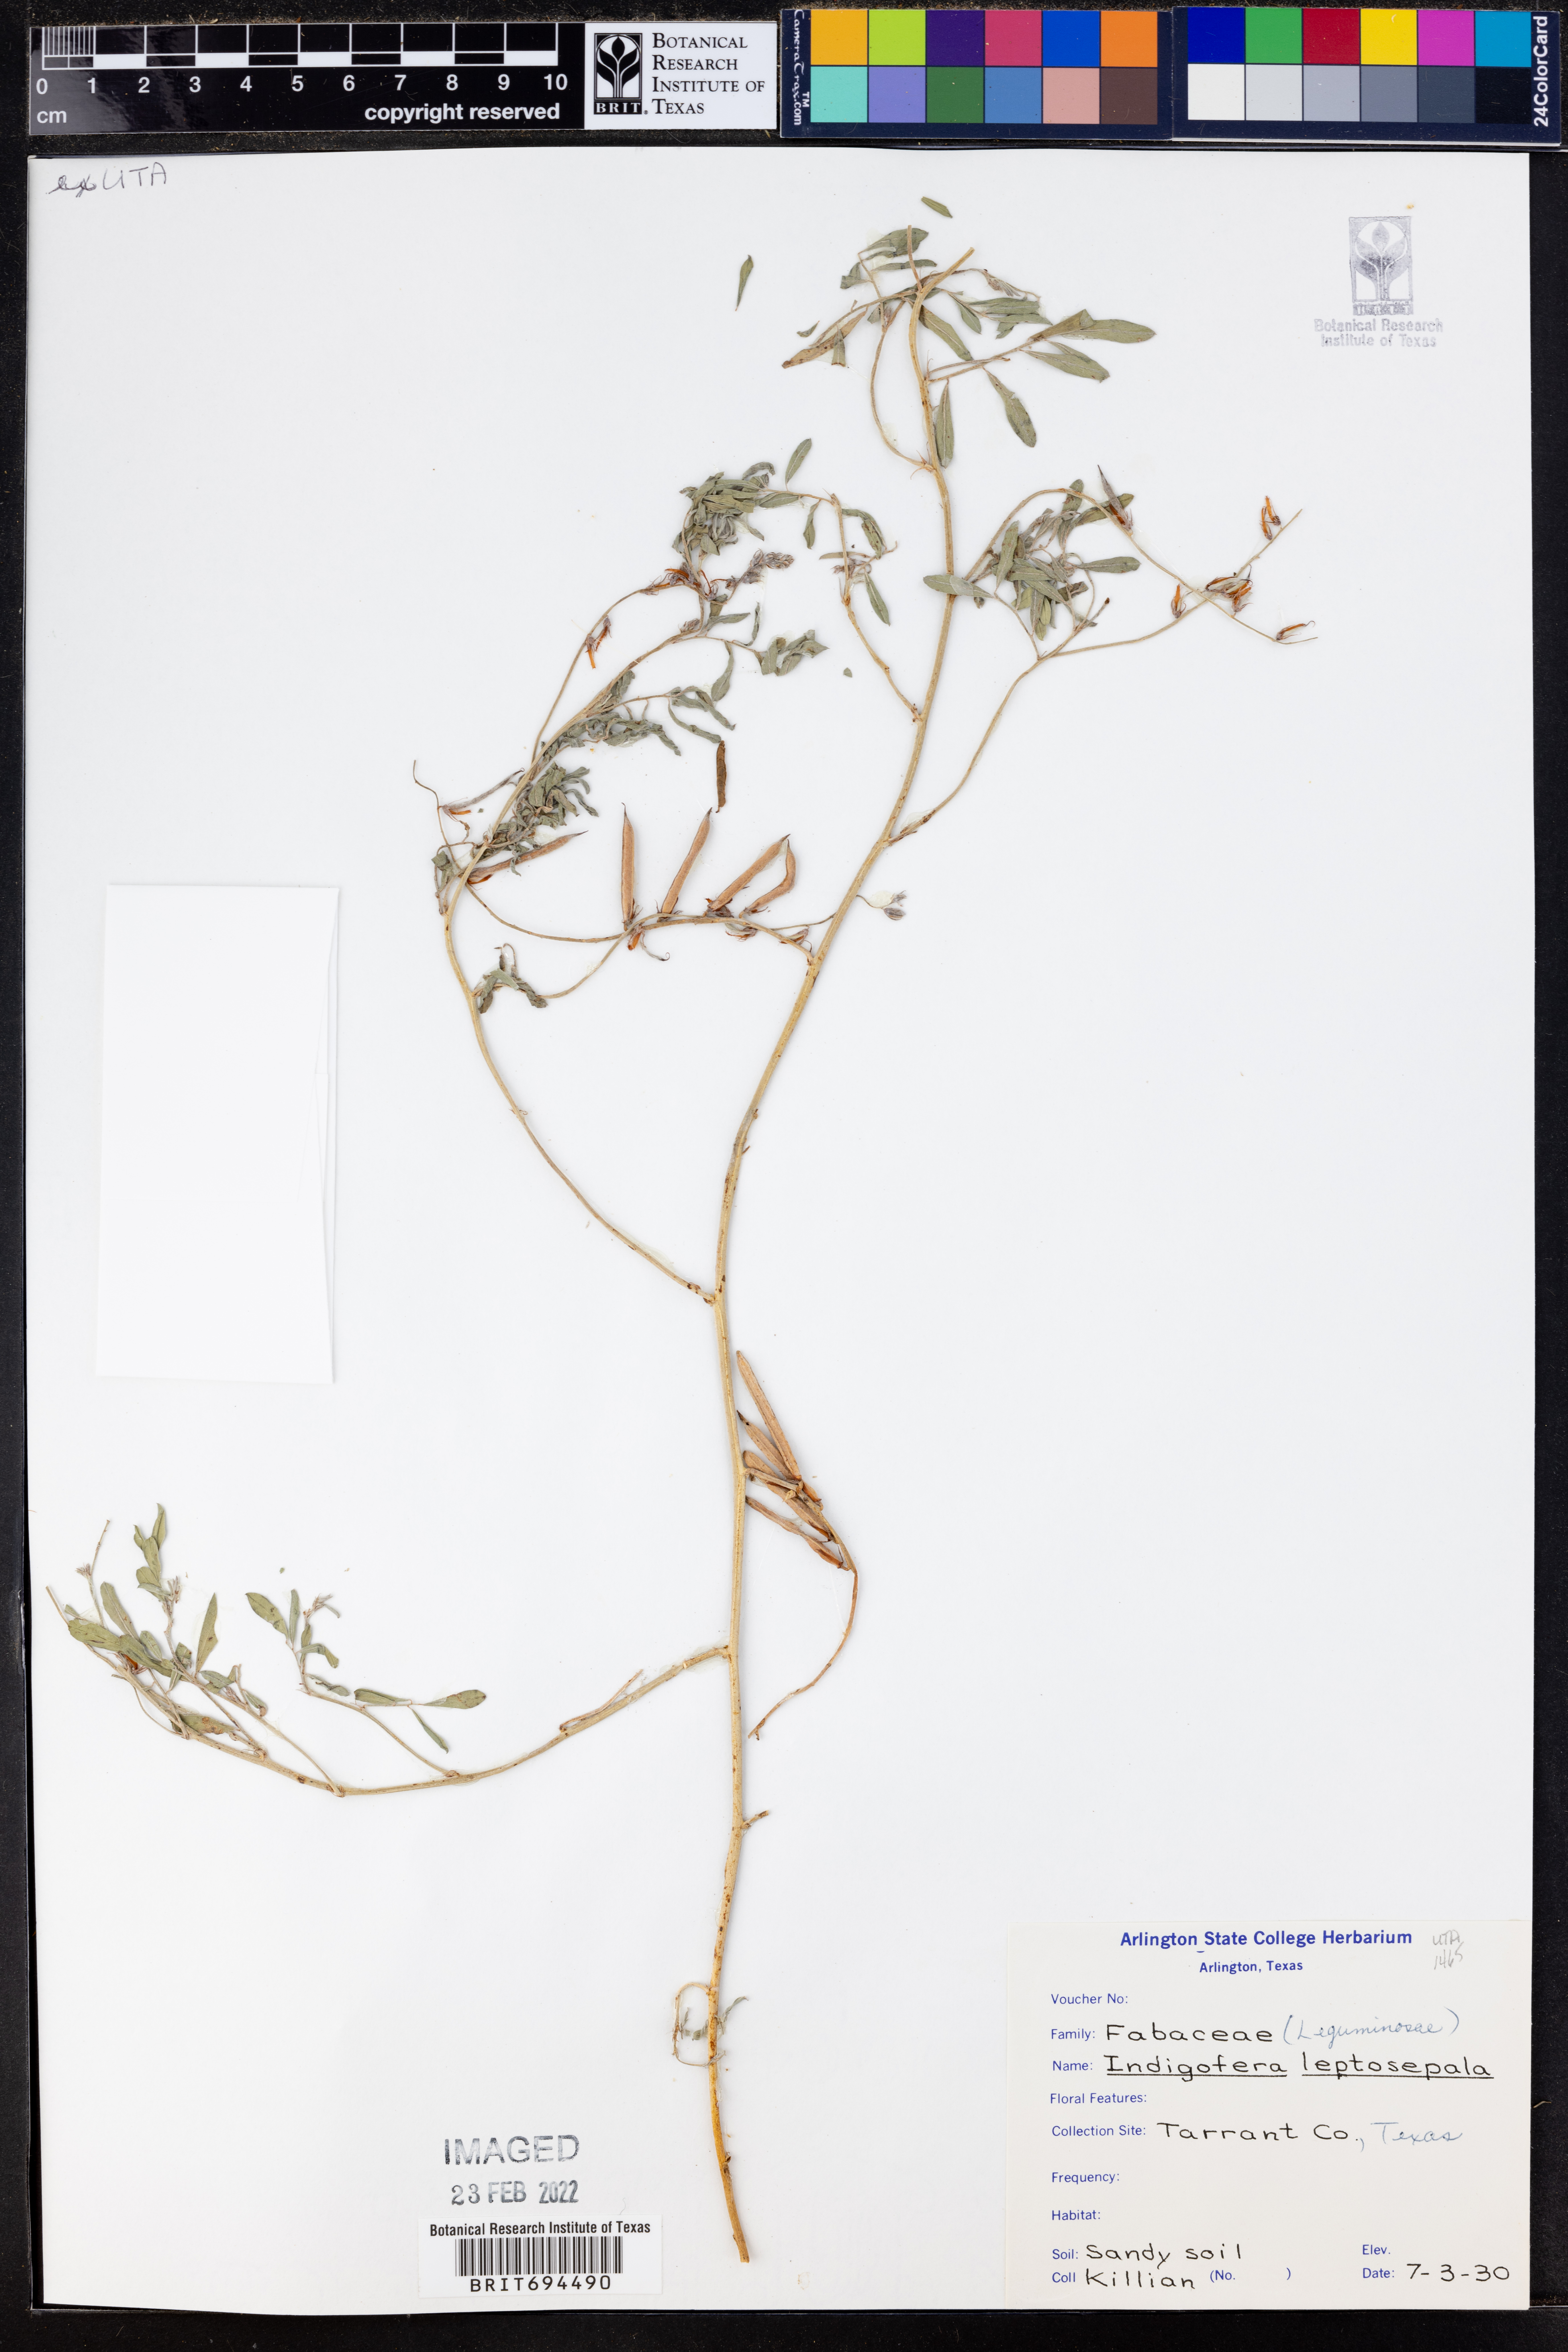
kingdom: Plantae
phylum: Tracheophyta
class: Magnoliopsida
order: Fabales
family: Fabaceae
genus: Indigofera
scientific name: Indigofera argutidens
